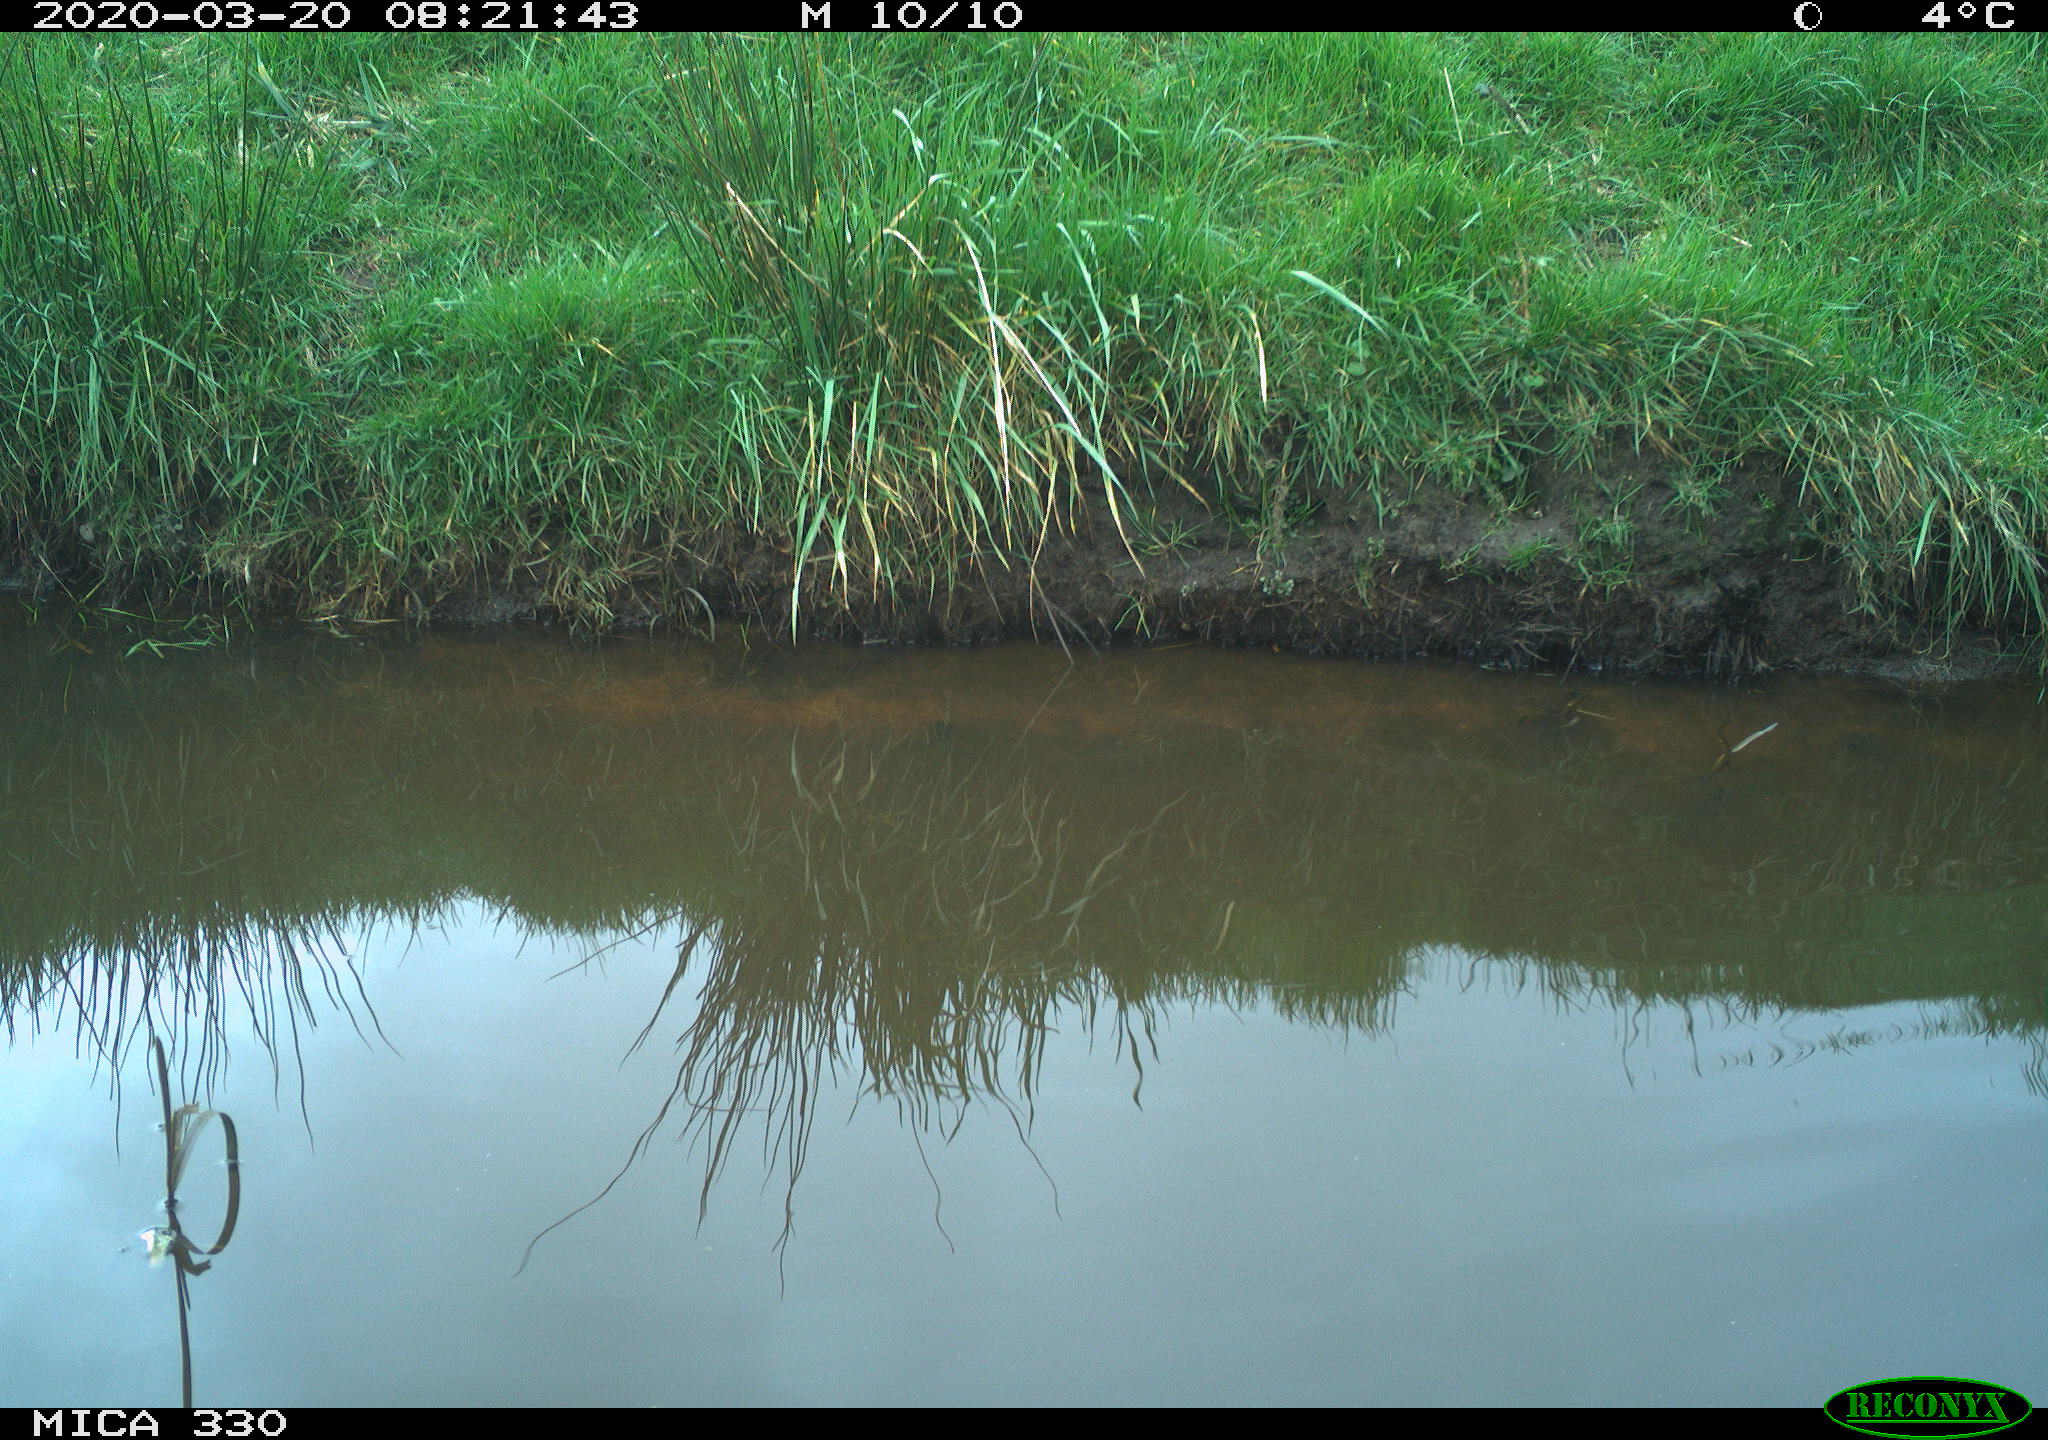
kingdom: Animalia
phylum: Chordata
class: Aves
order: Gruiformes
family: Rallidae
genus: Gallinula
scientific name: Gallinula chloropus
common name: Common moorhen
